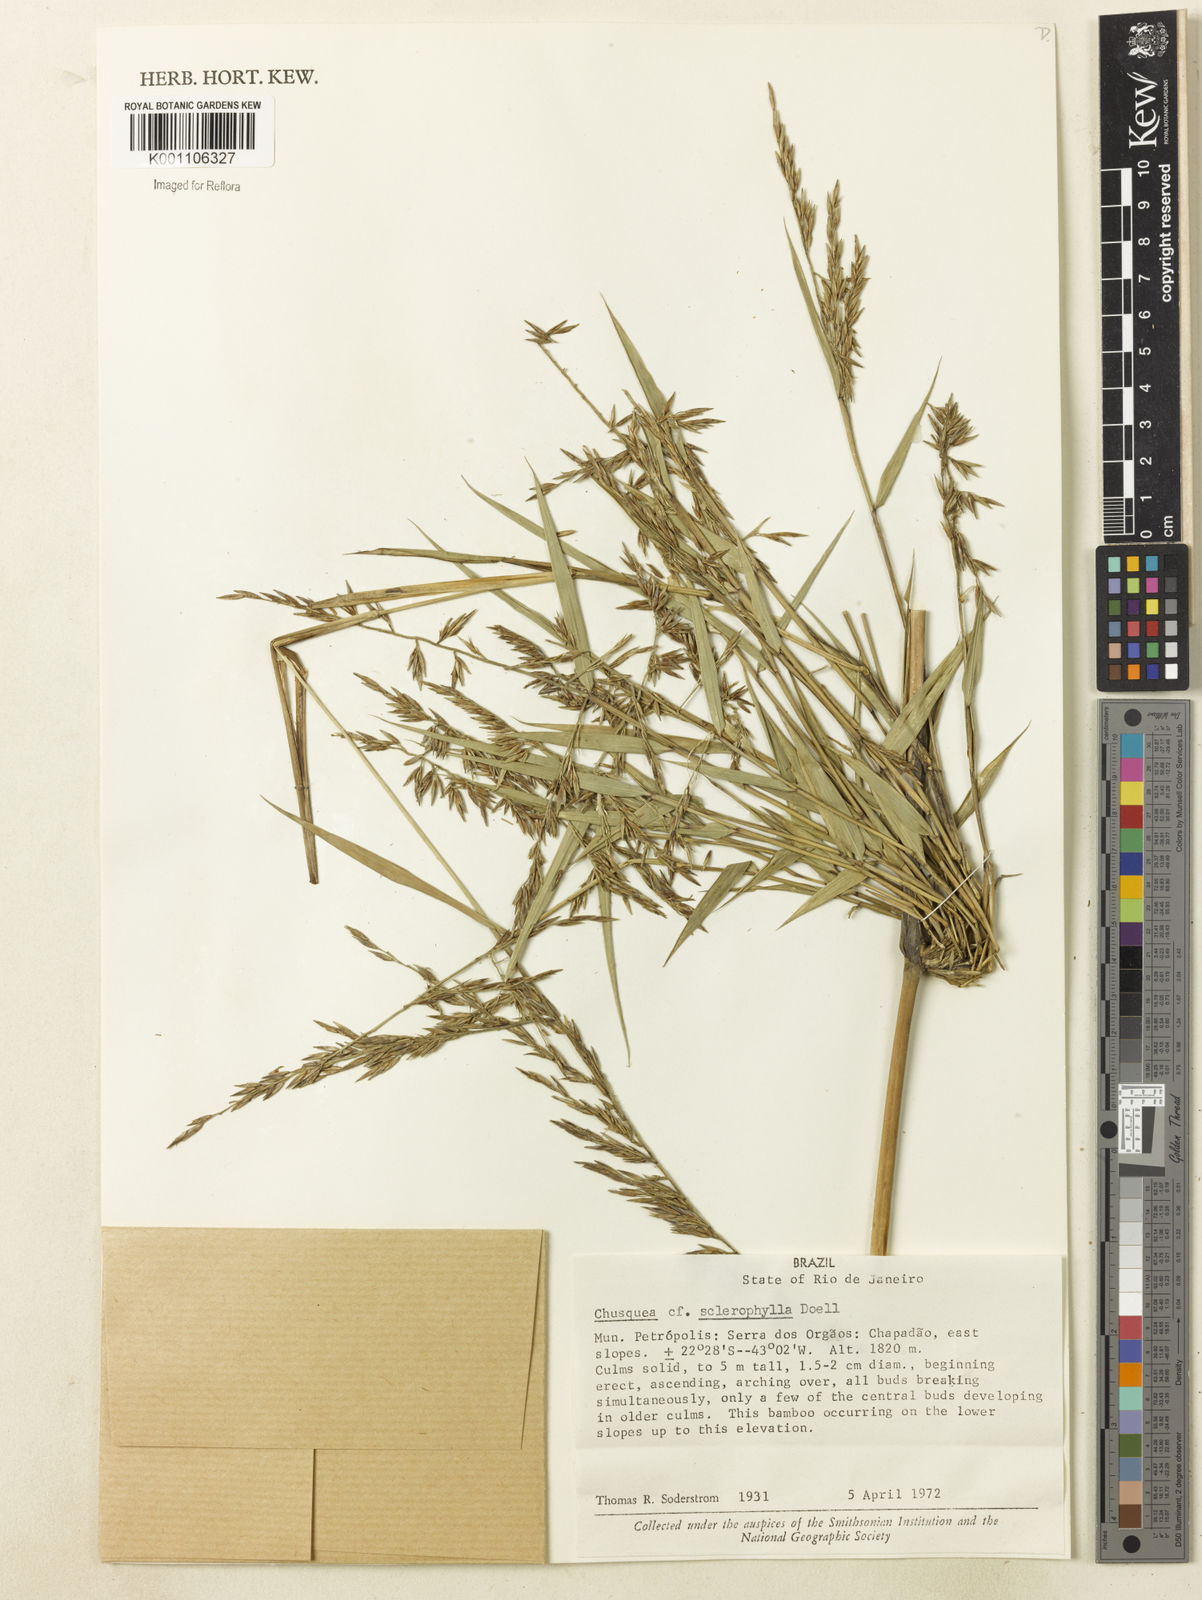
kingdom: Plantae
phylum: Tracheophyta
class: Liliopsida
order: Poales
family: Poaceae
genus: Chusquea
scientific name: Chusquea
